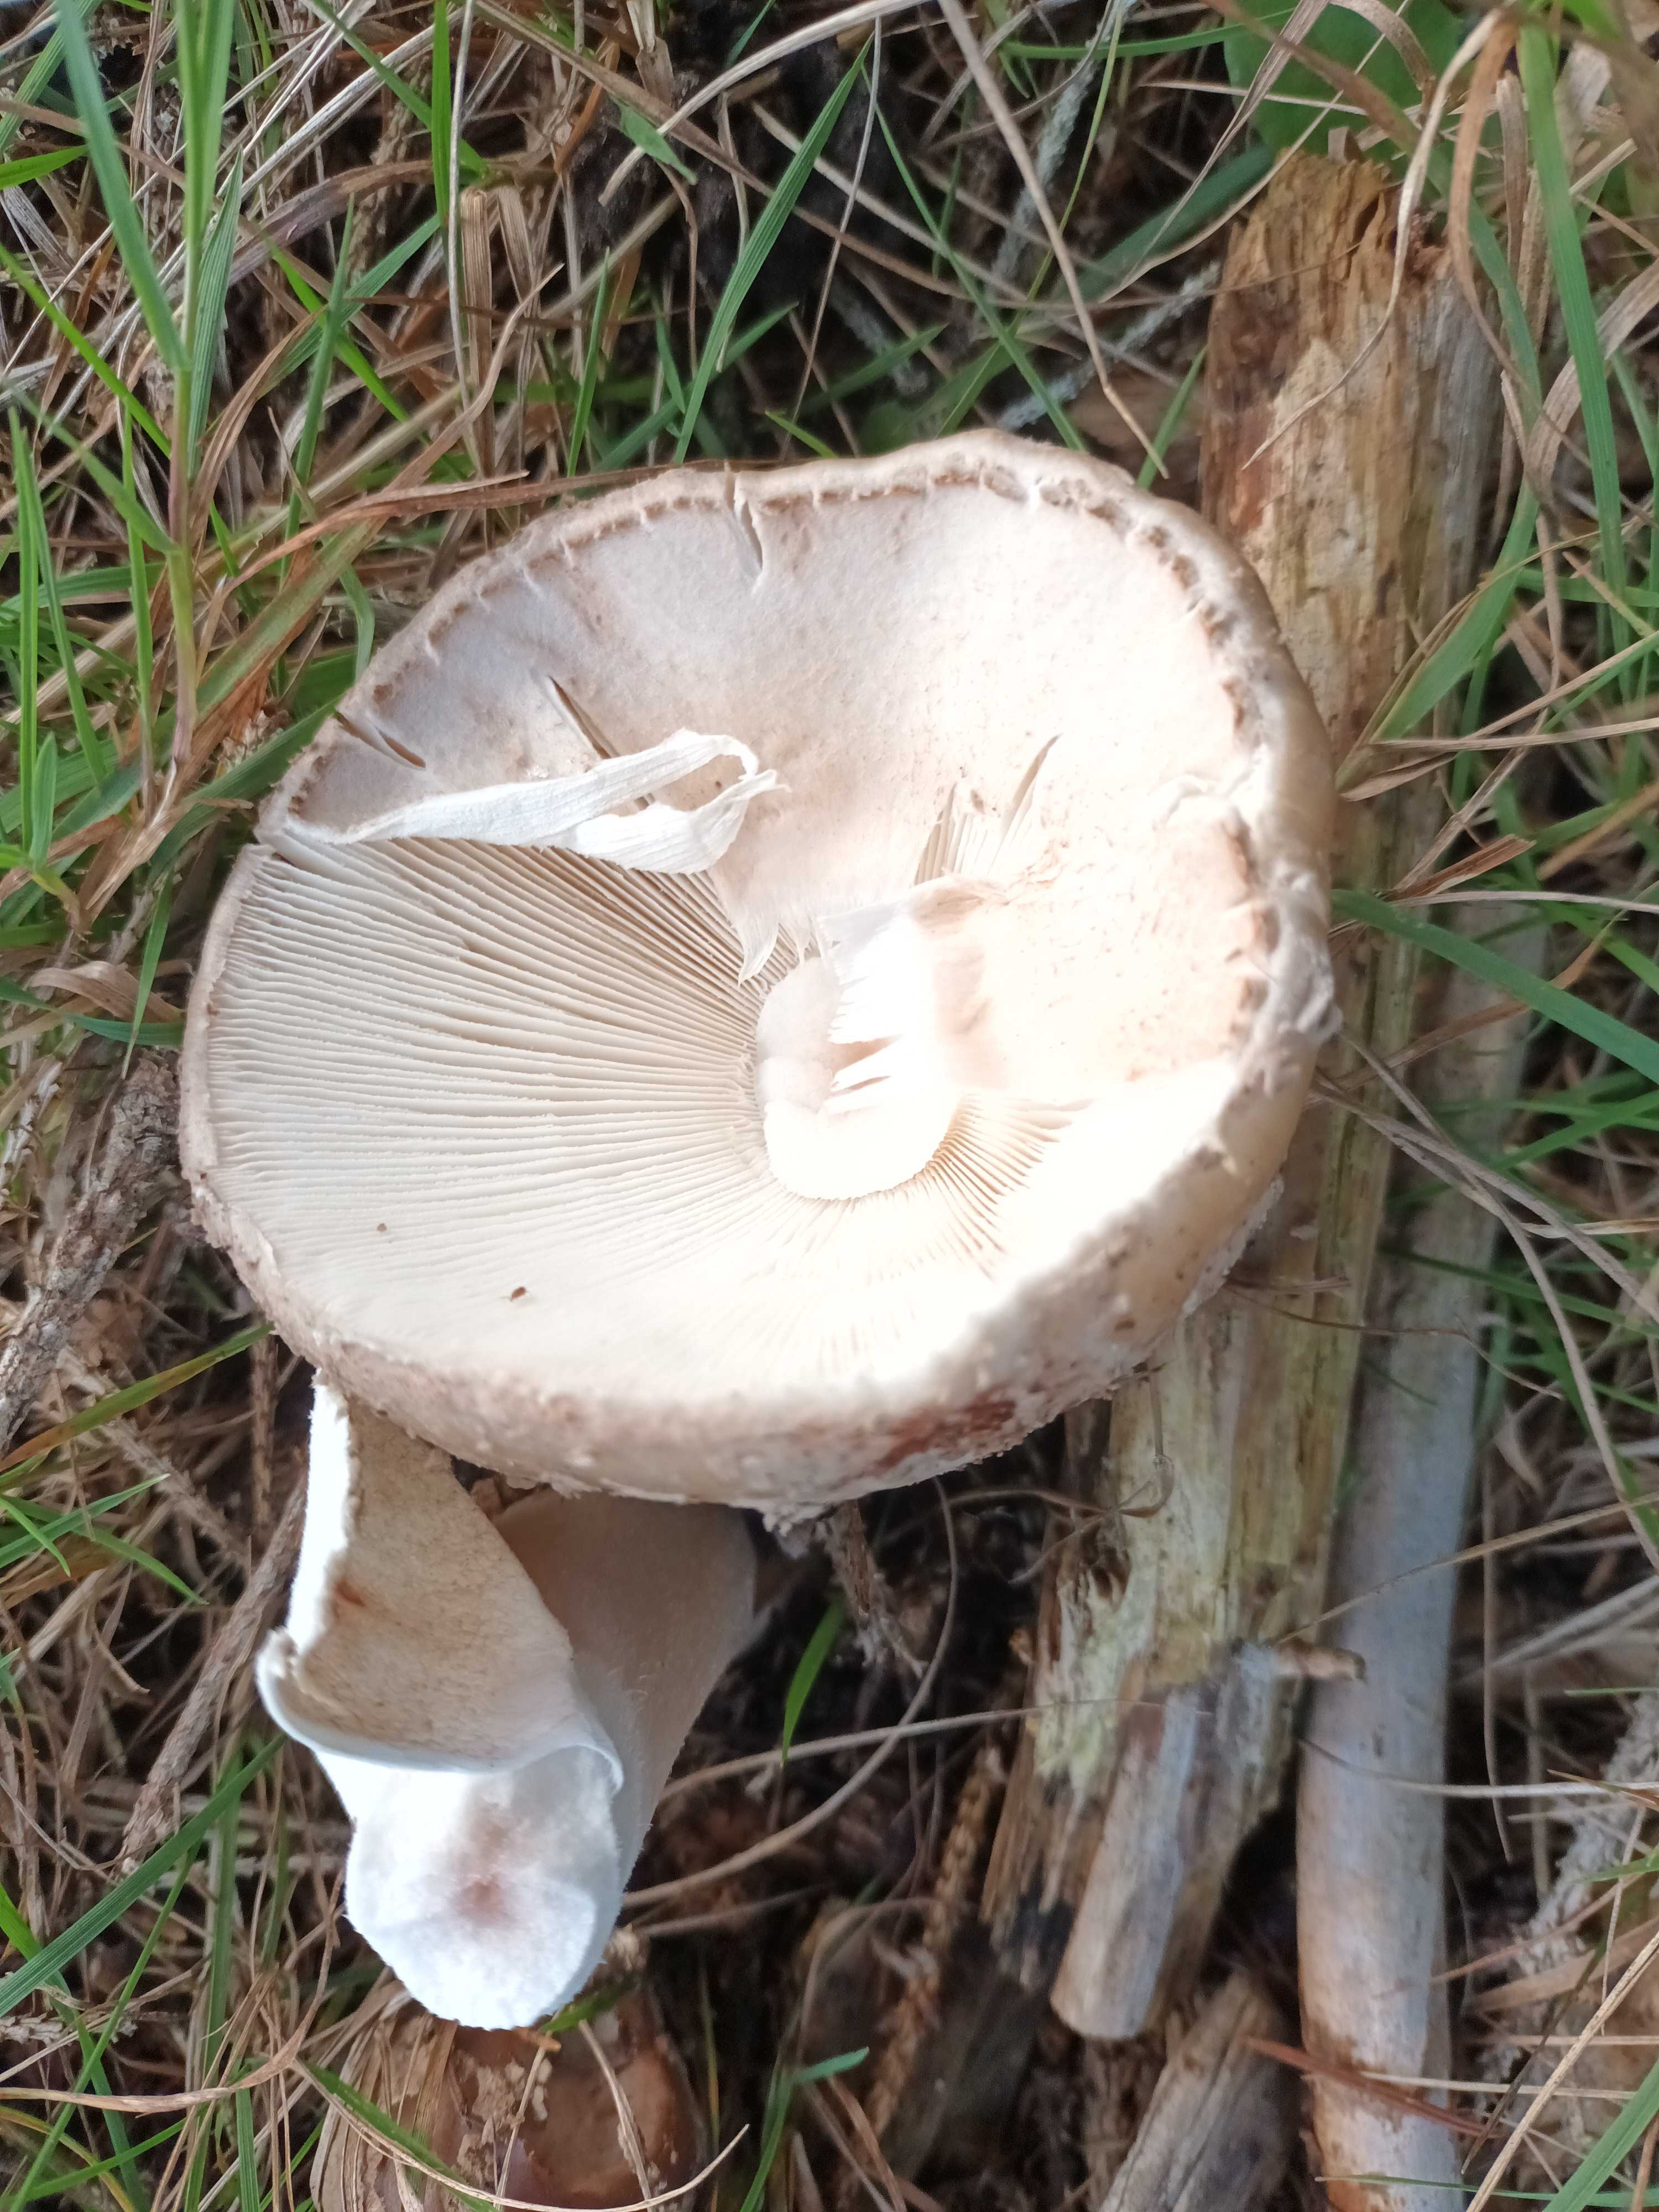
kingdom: Fungi
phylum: Basidiomycota
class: Agaricomycetes
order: Agaricales
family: Amanitaceae
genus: Amanita
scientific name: Amanita rubescens
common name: rødmende fluesvamp
